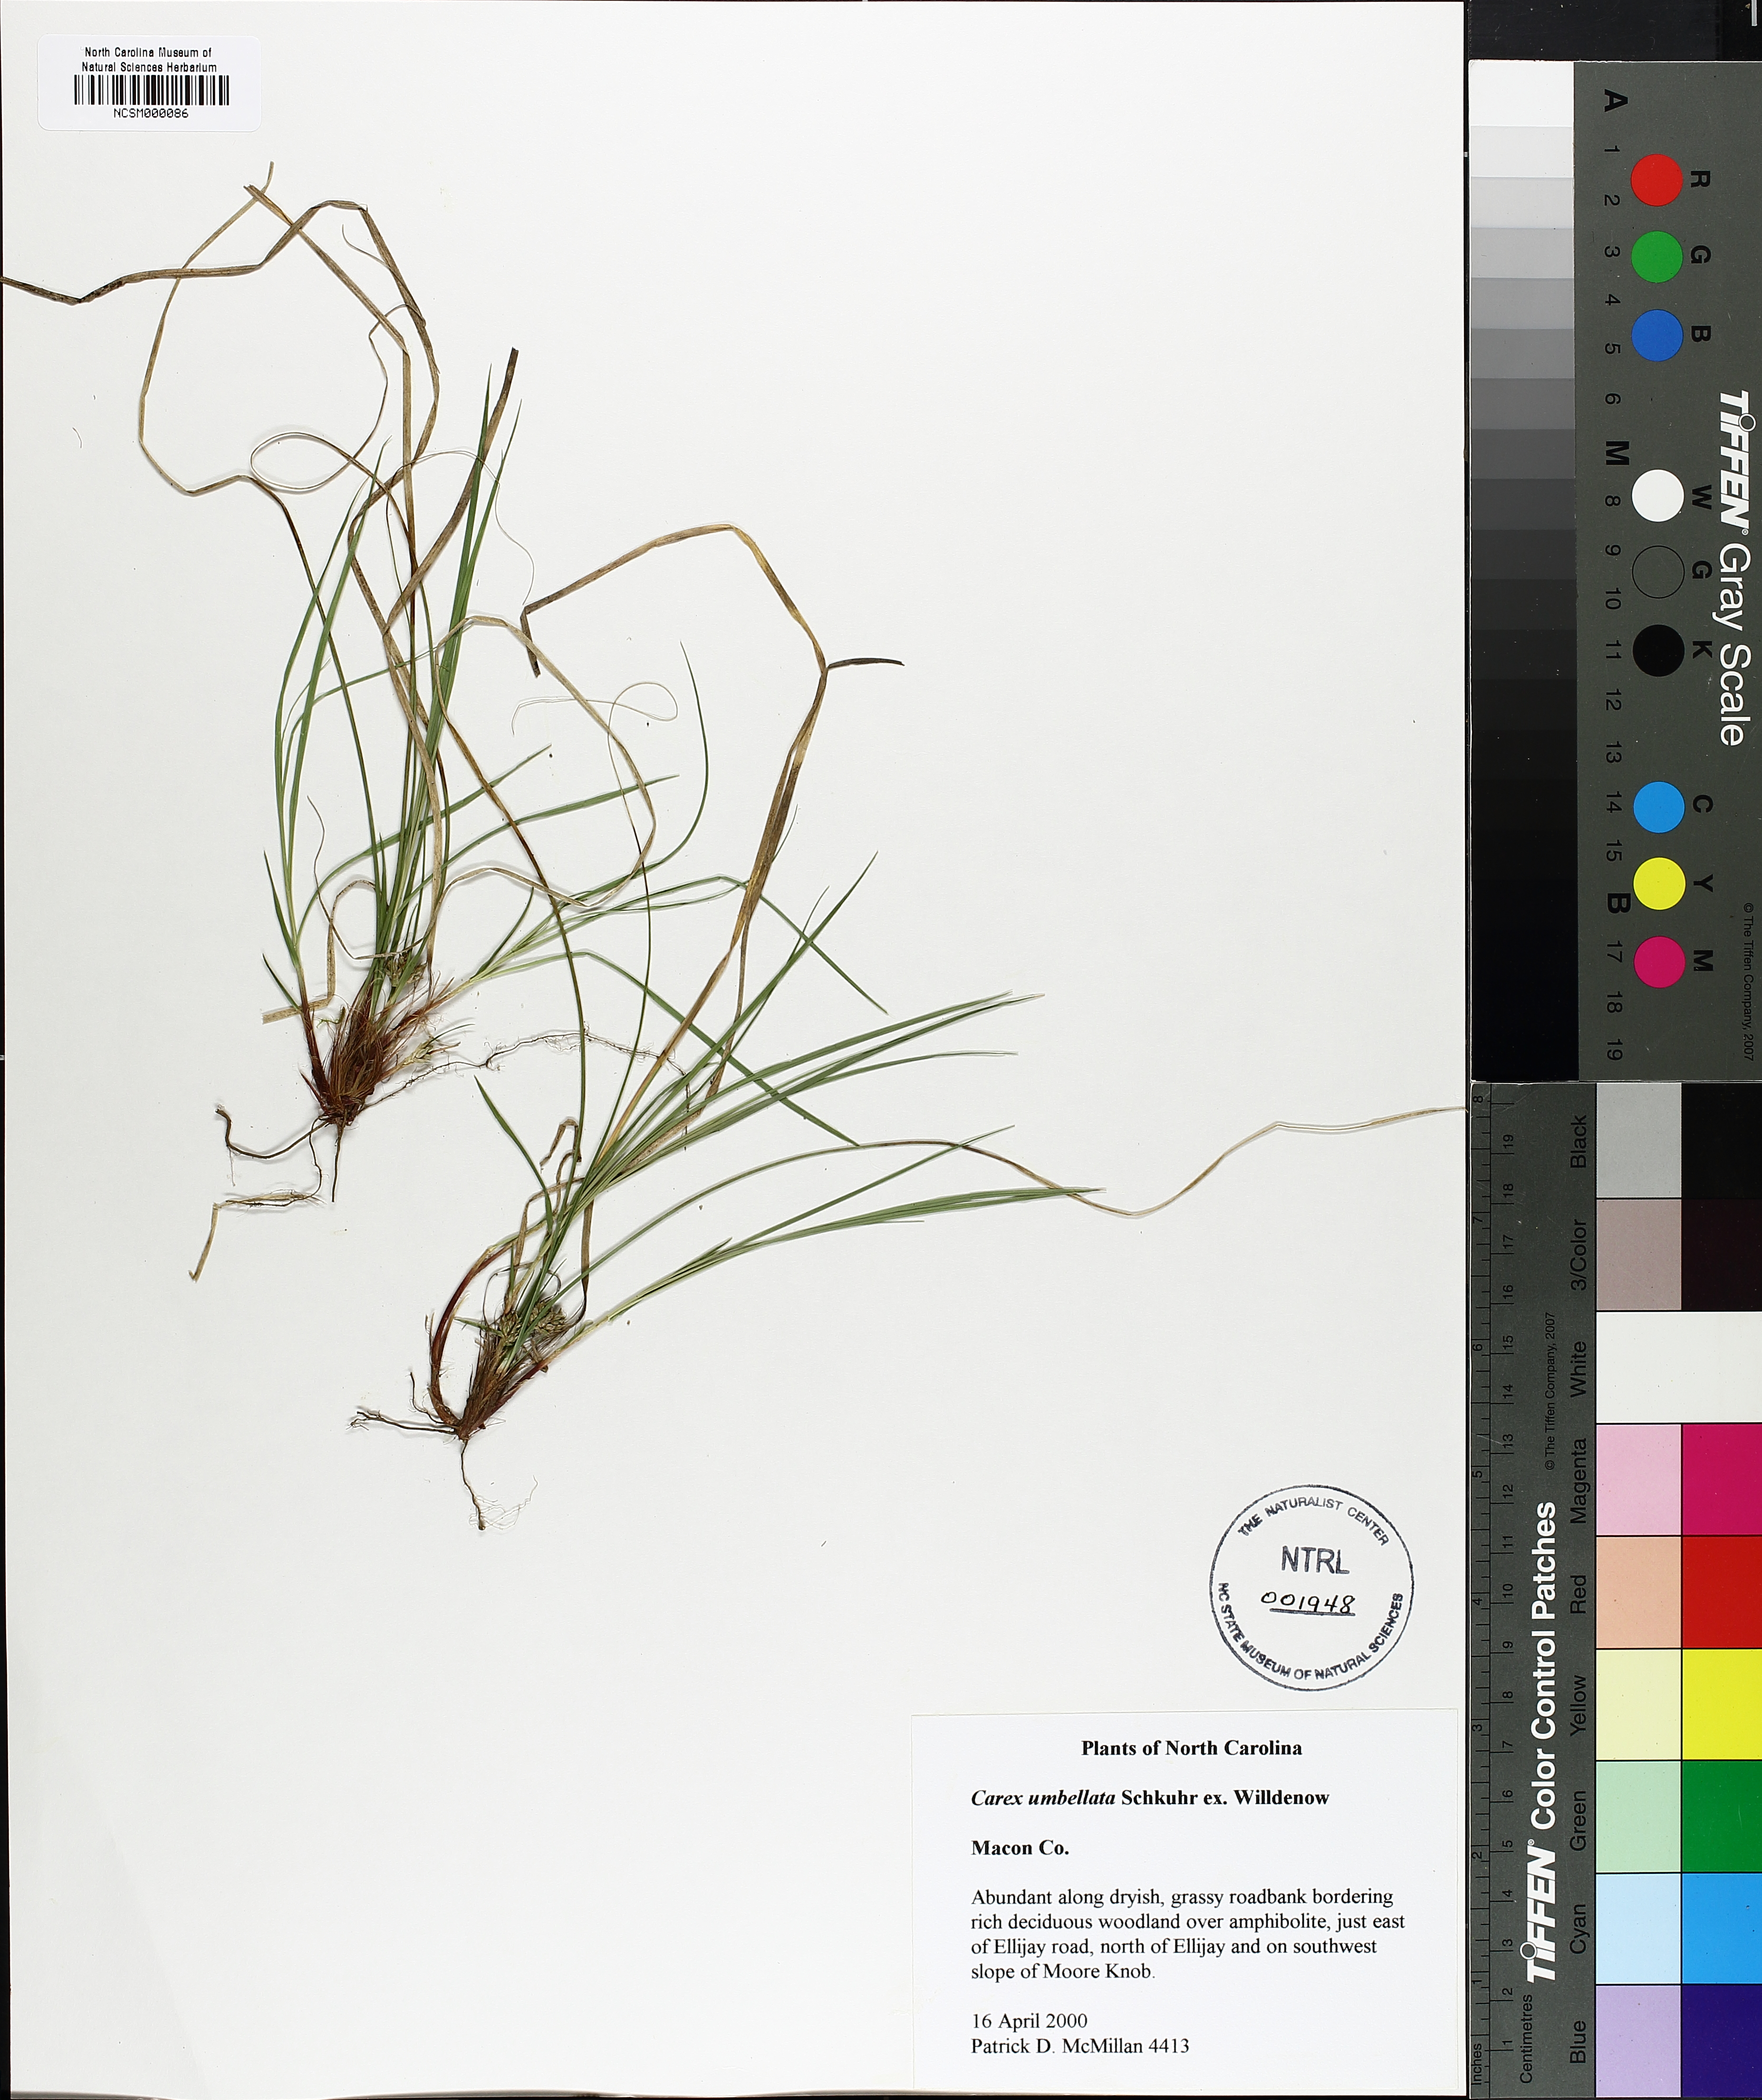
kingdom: Plantae
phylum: Tracheophyta
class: Liliopsida
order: Poales
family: Cyperaceae
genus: Carex
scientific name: Carex umbellata
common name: Early oak sedge
